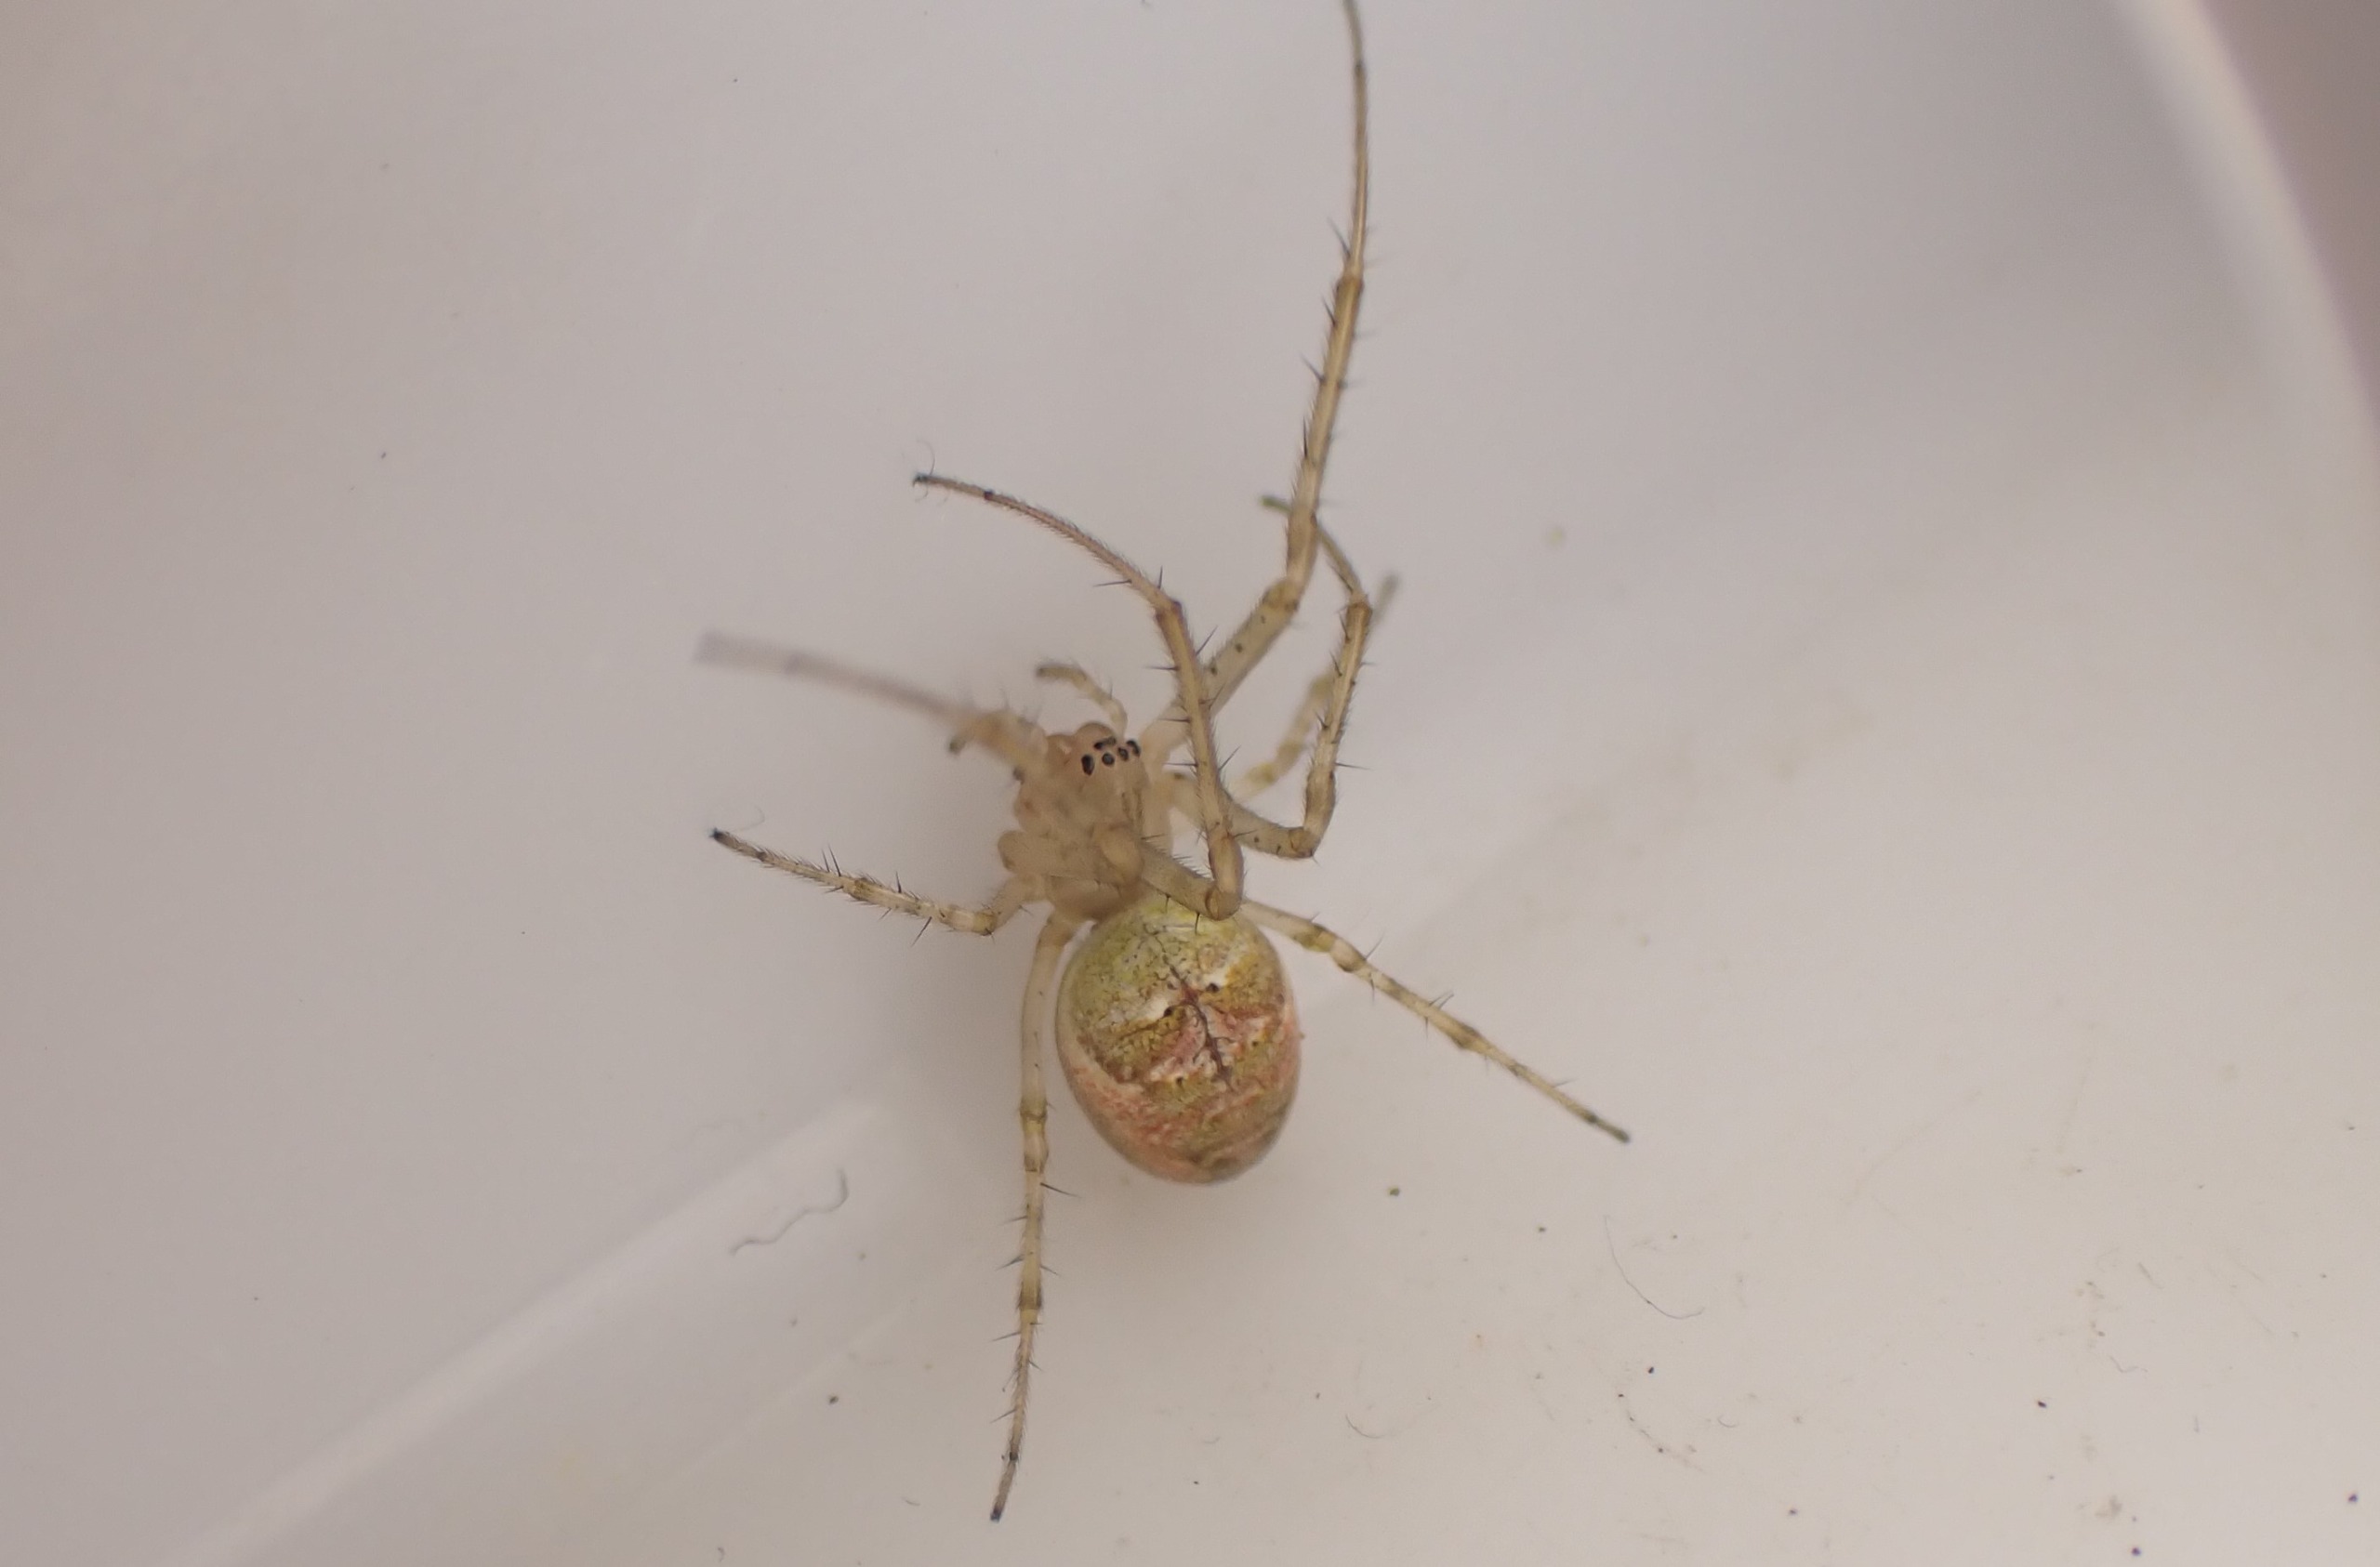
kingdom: Animalia
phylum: Arthropoda
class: Arachnida
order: Araneae
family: Tetragnathidae
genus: Metellina
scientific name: Metellina
